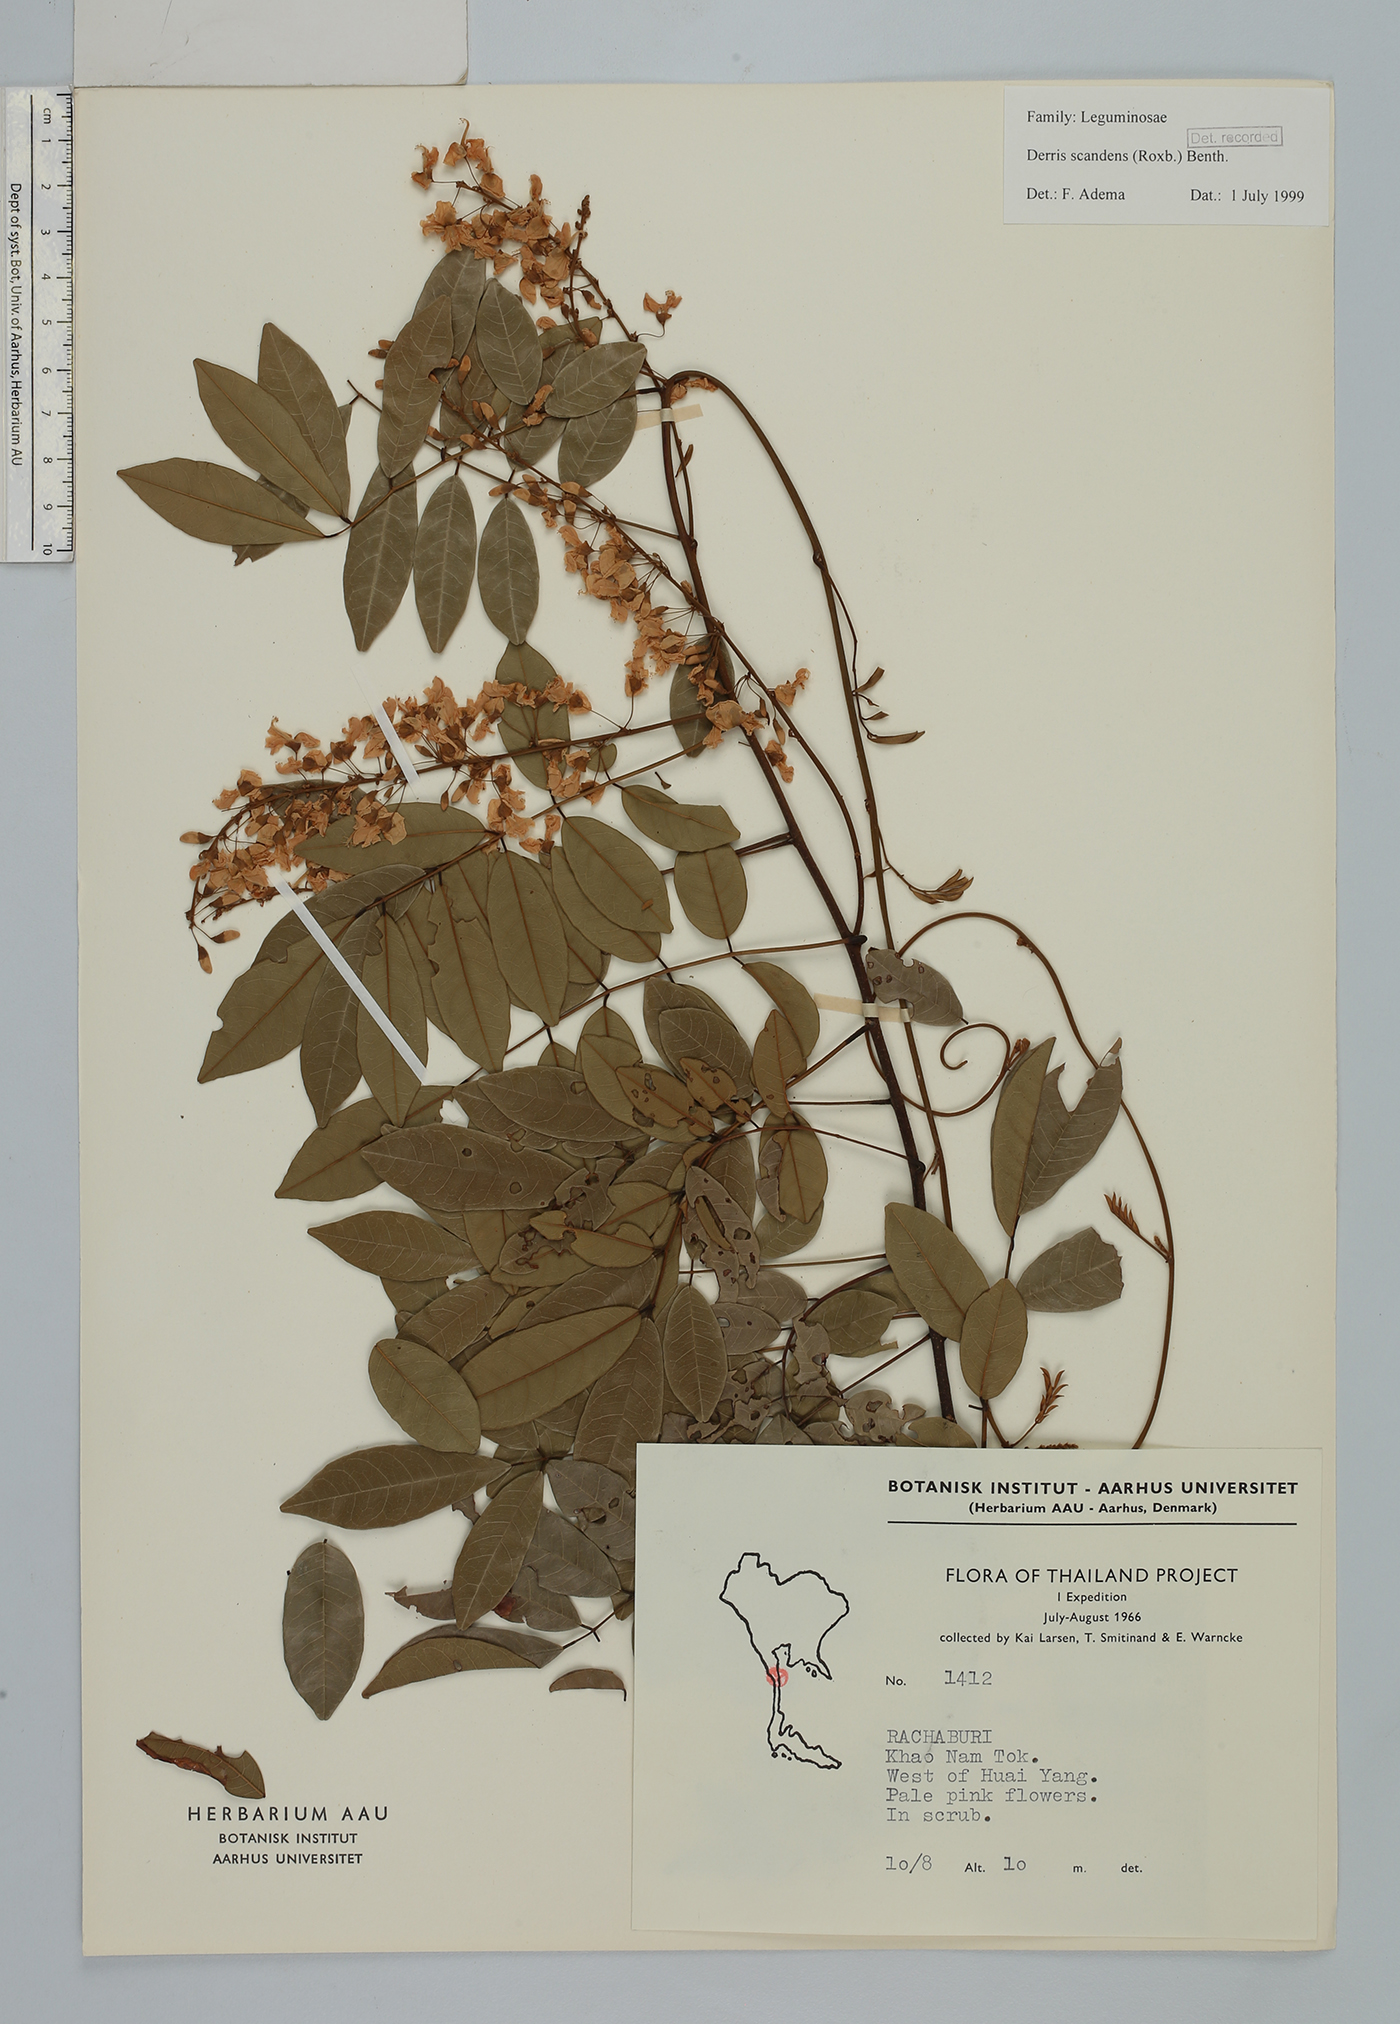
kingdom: Plantae
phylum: Tracheophyta
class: Magnoliopsida
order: Fabales
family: Fabaceae
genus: Brachypterum
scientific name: Brachypterum scandens
